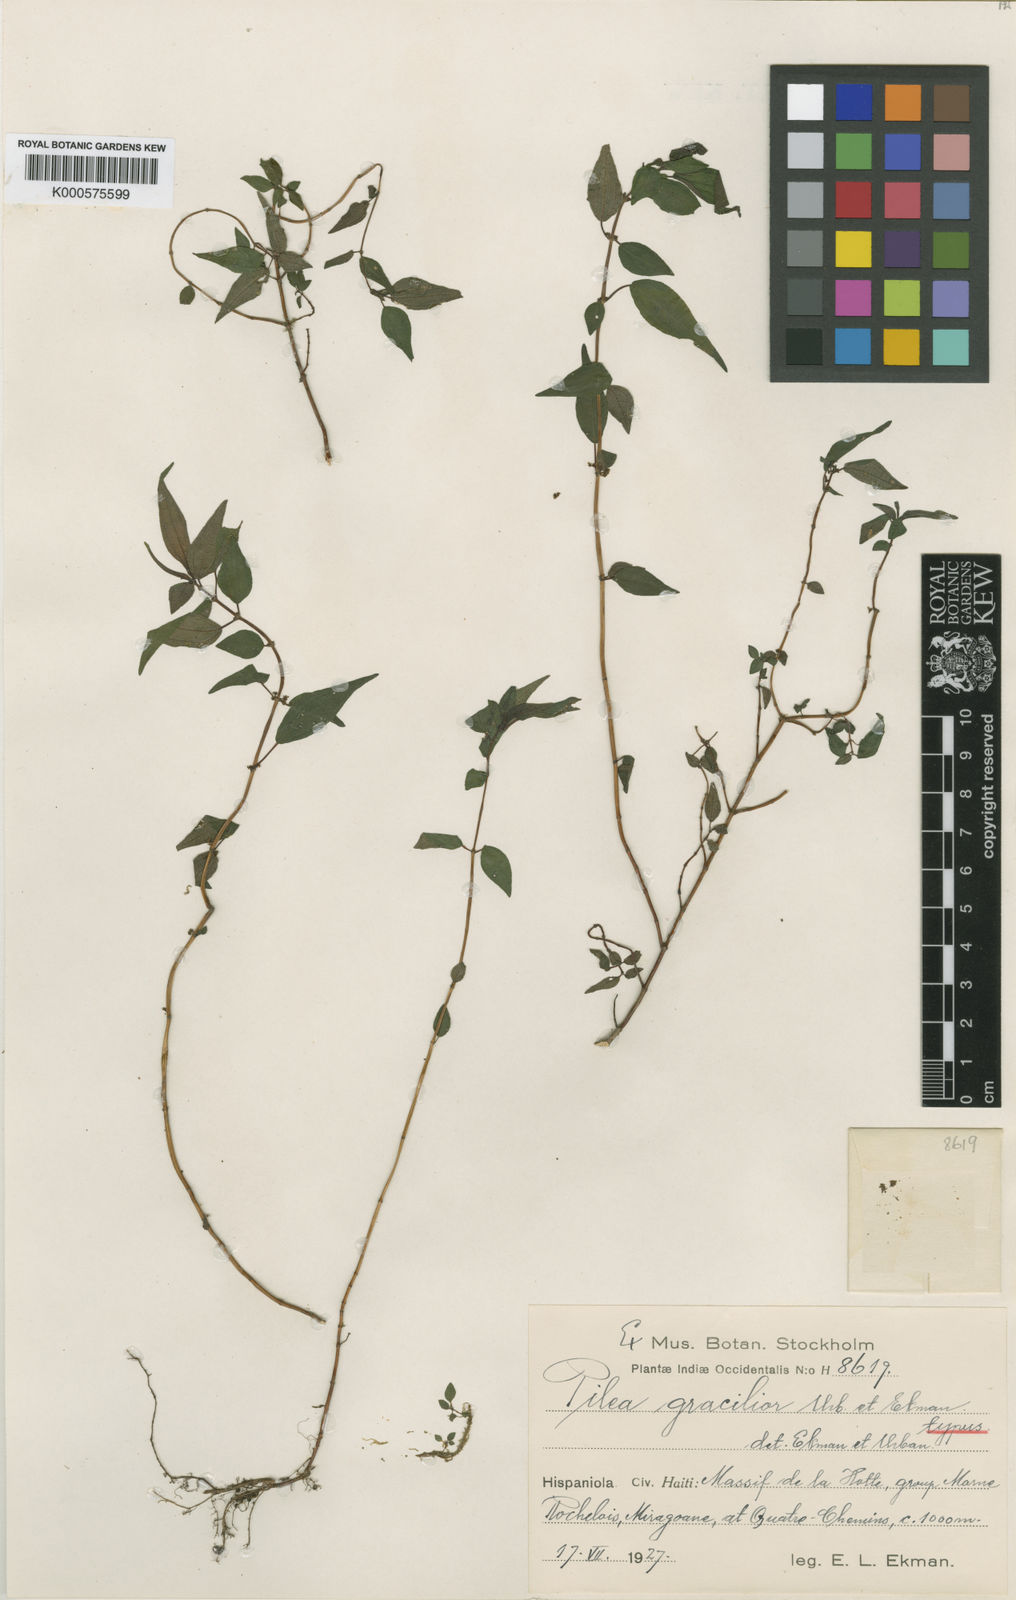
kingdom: Plantae
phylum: Tracheophyta
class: Magnoliopsida
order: Rosales
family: Urticaceae
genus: Pilea
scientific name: Pilea gracilior
